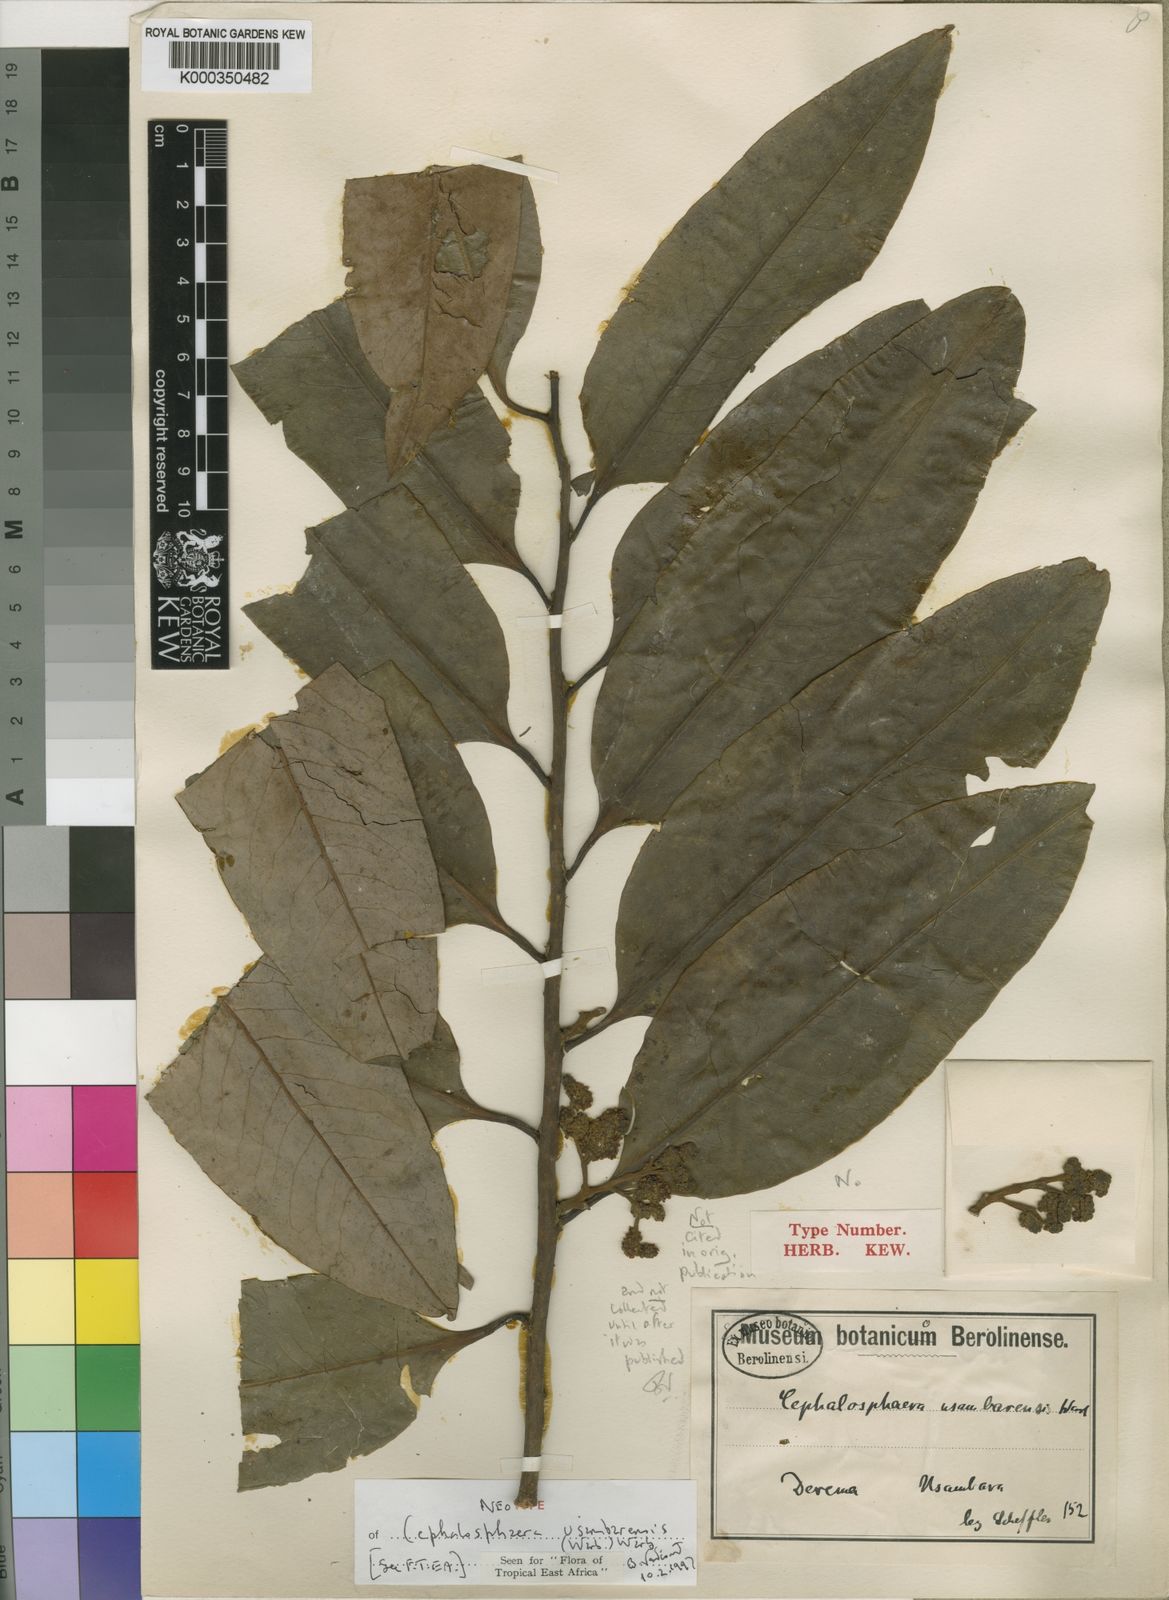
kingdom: Plantae
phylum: Tracheophyta
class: Magnoliopsida
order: Magnoliales
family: Myristicaceae
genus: Brochoneura
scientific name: Brochoneura usambarensis
